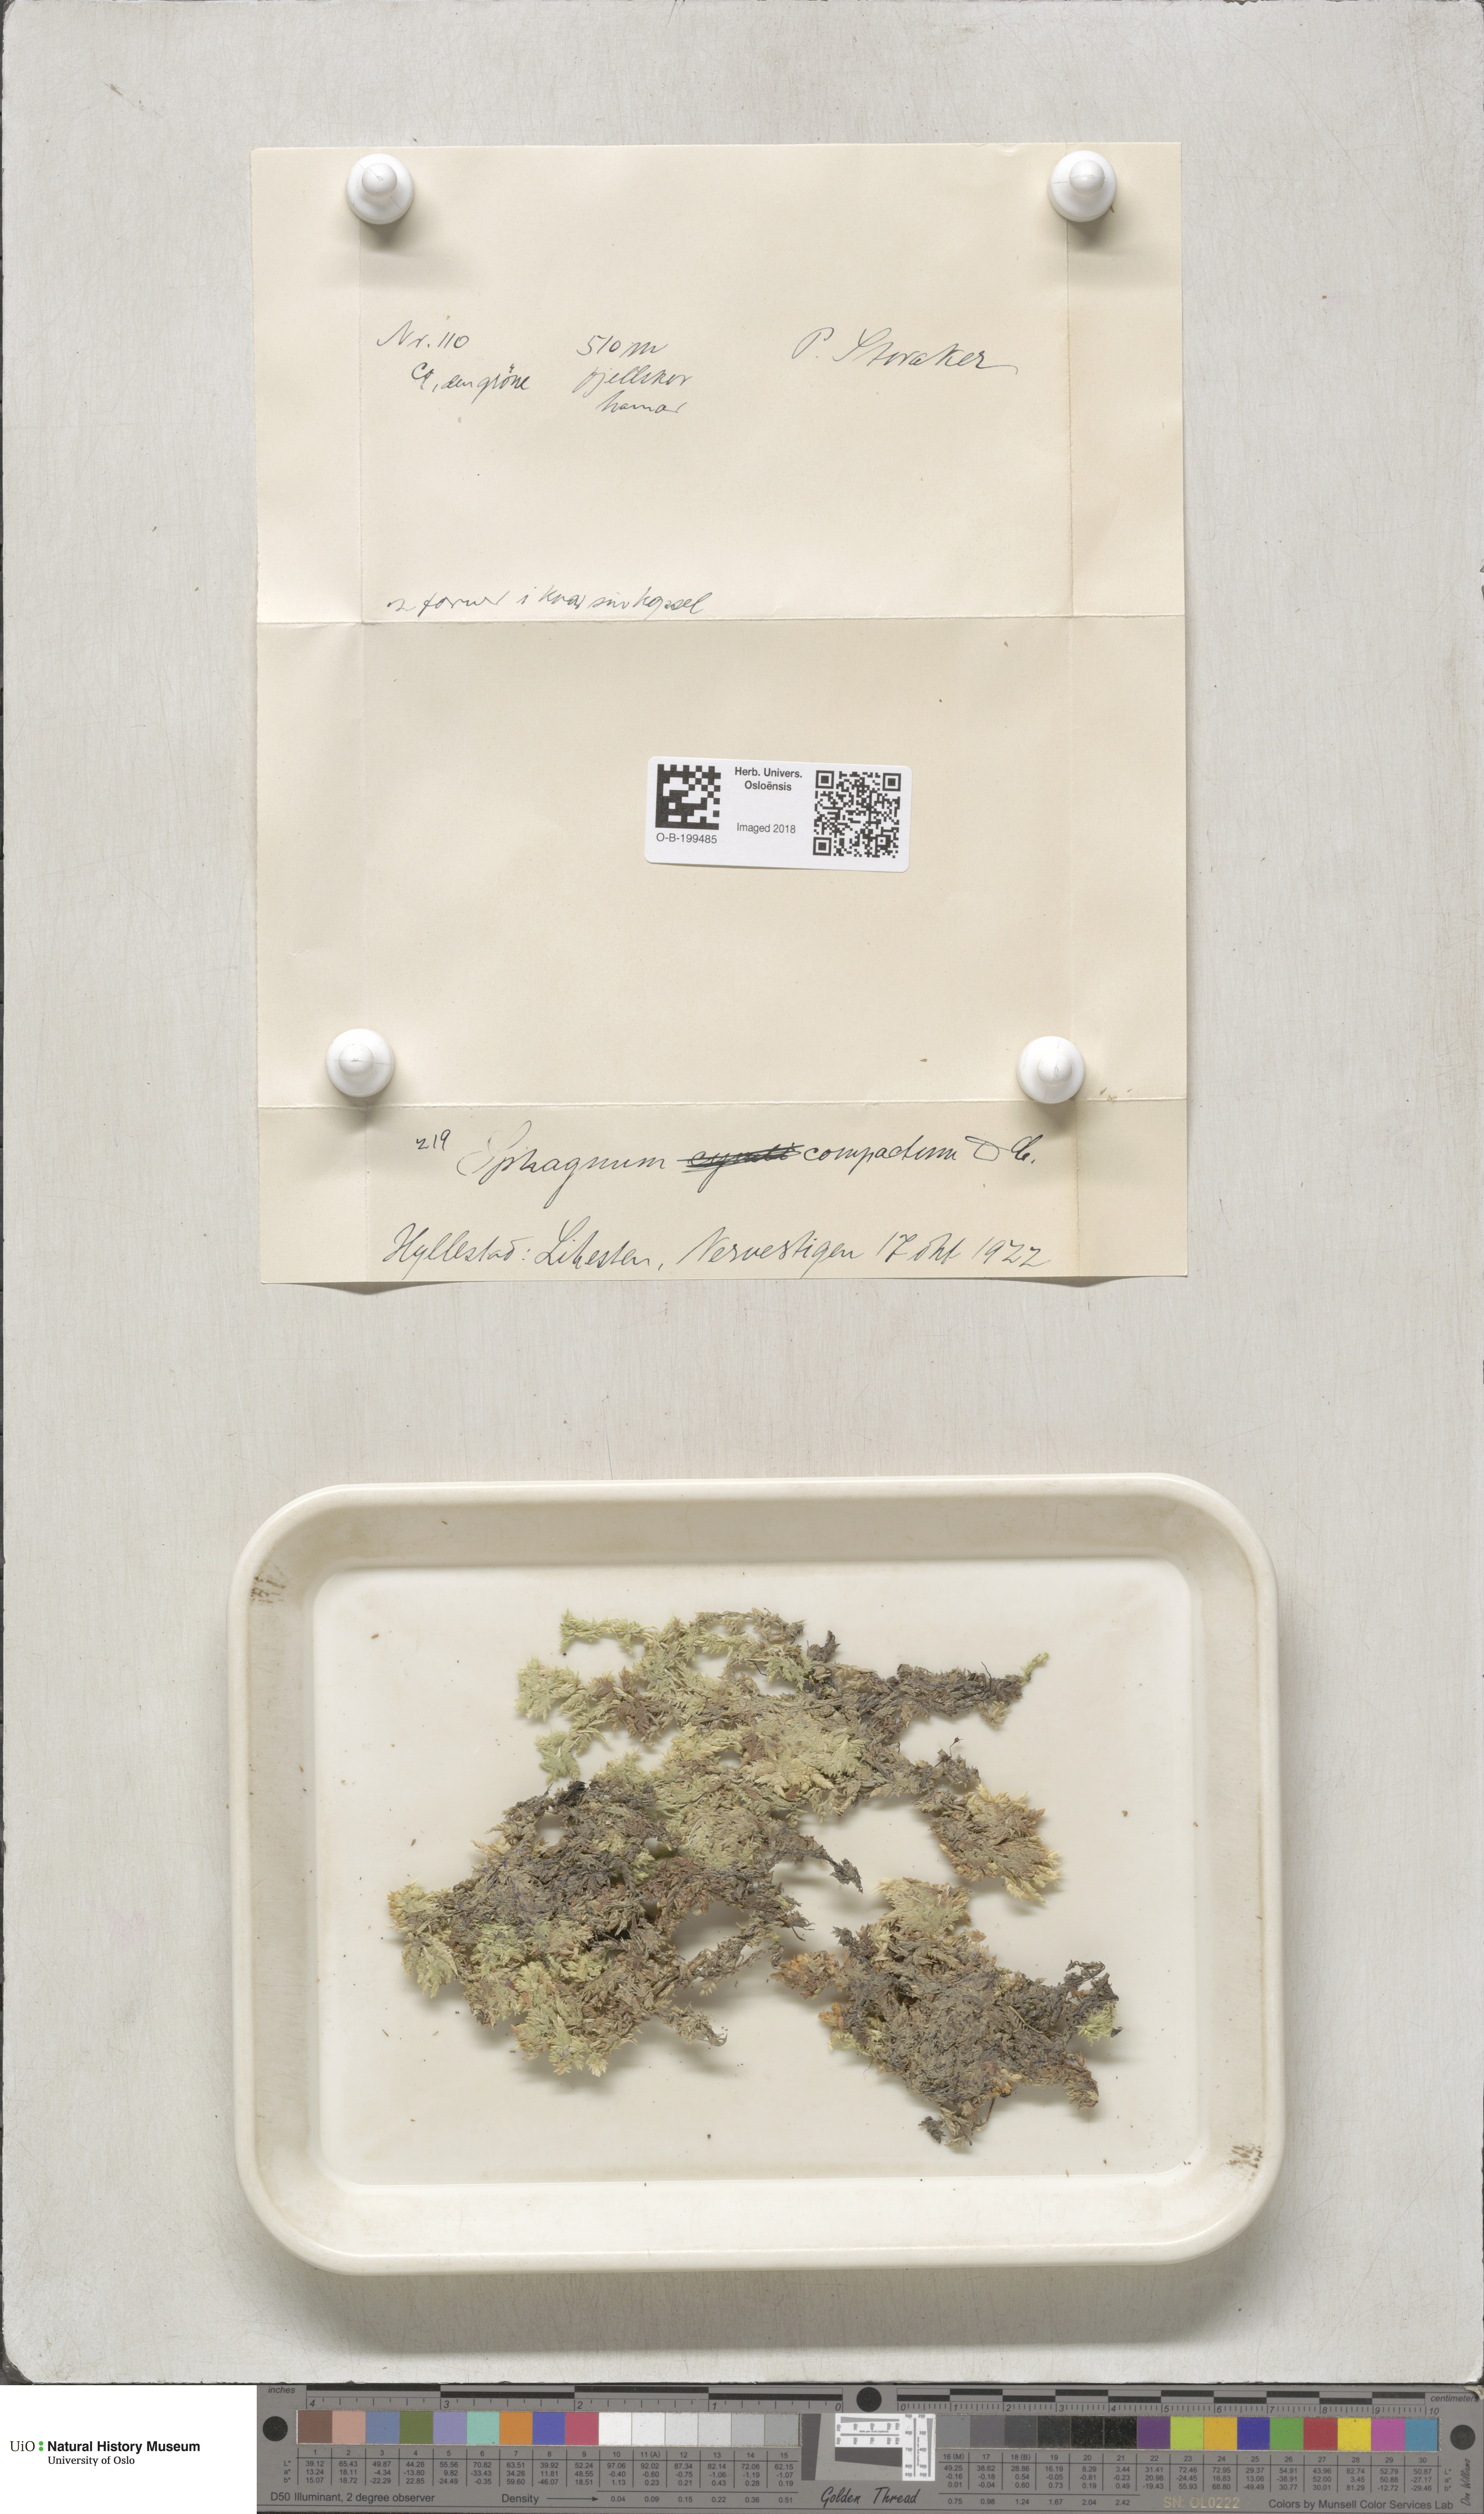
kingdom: Plantae
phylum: Bryophyta
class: Sphagnopsida
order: Sphagnales
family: Sphagnaceae
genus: Sphagnum
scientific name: Sphagnum compactum
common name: Compact peat moss
